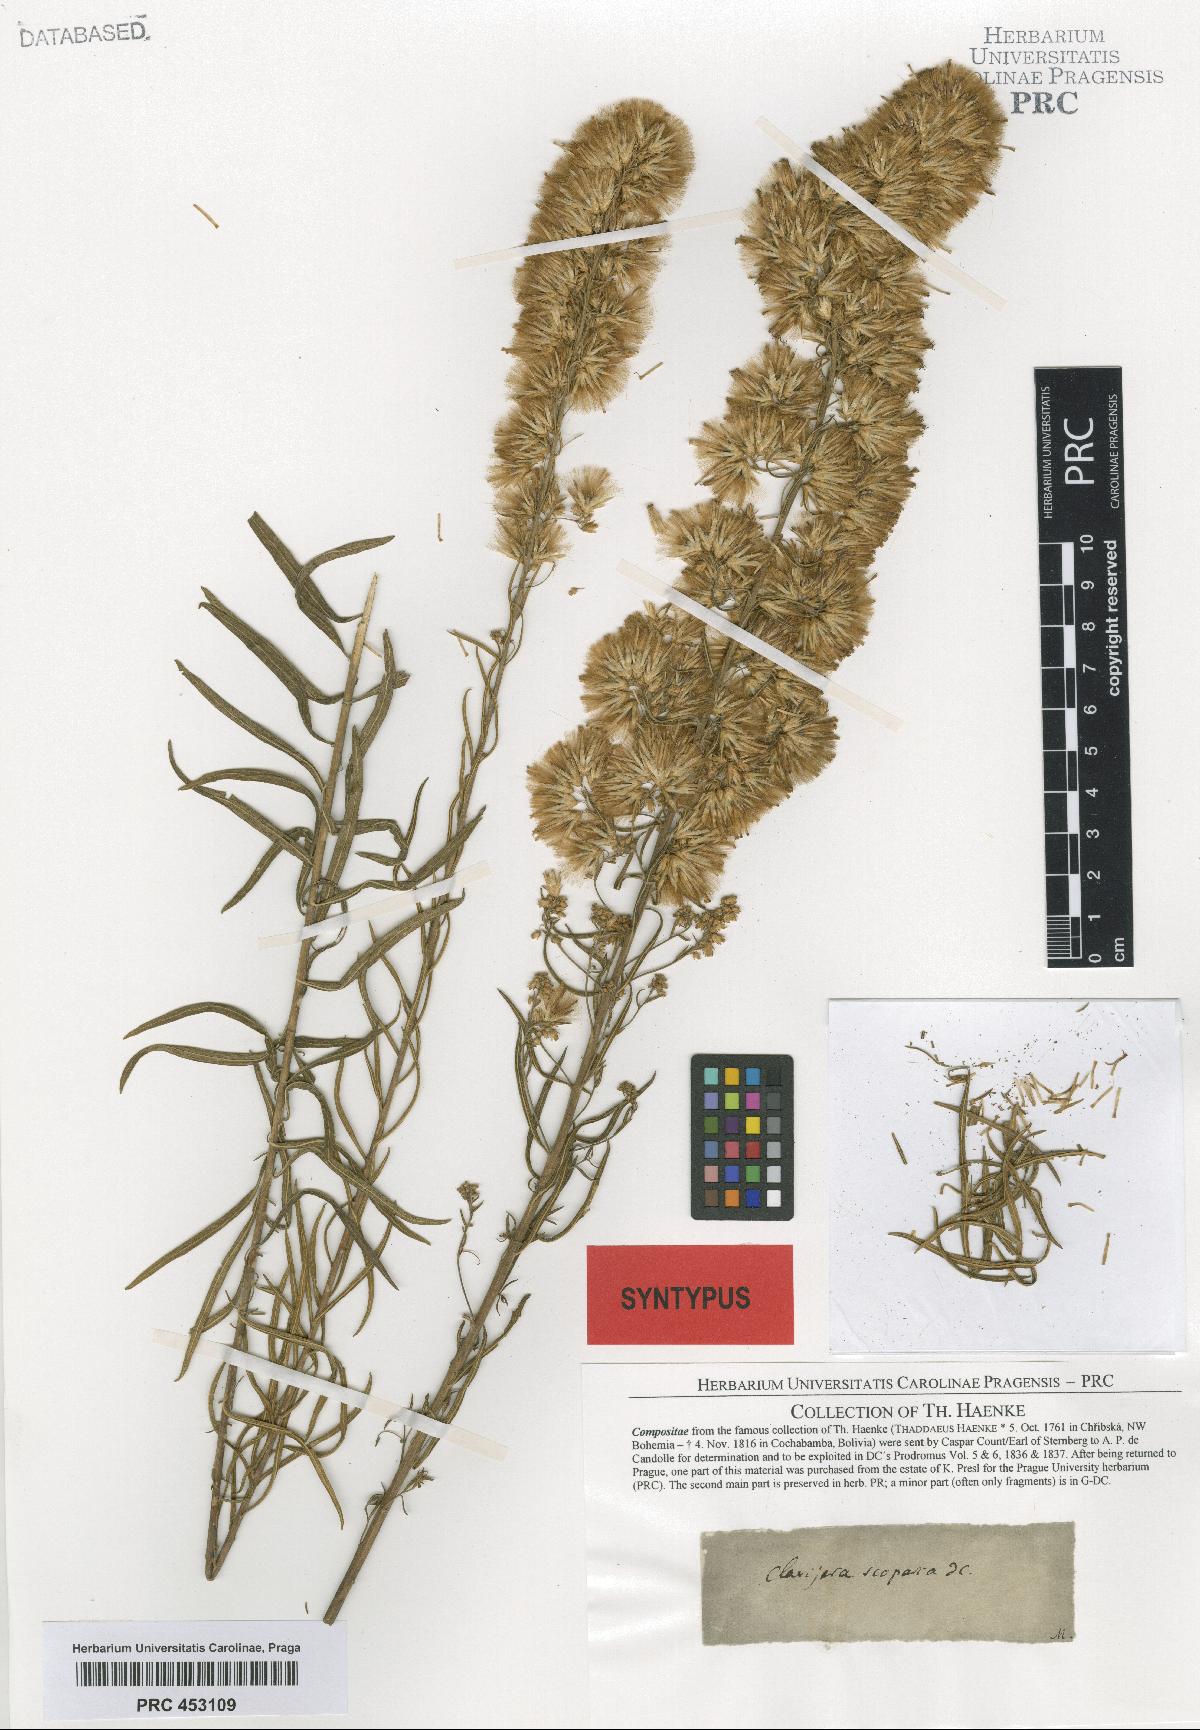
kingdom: Plantae
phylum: Tracheophyta
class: Magnoliopsida
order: Asterales
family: Asteraceae
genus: Brickellia
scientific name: Brickellia scoparia
